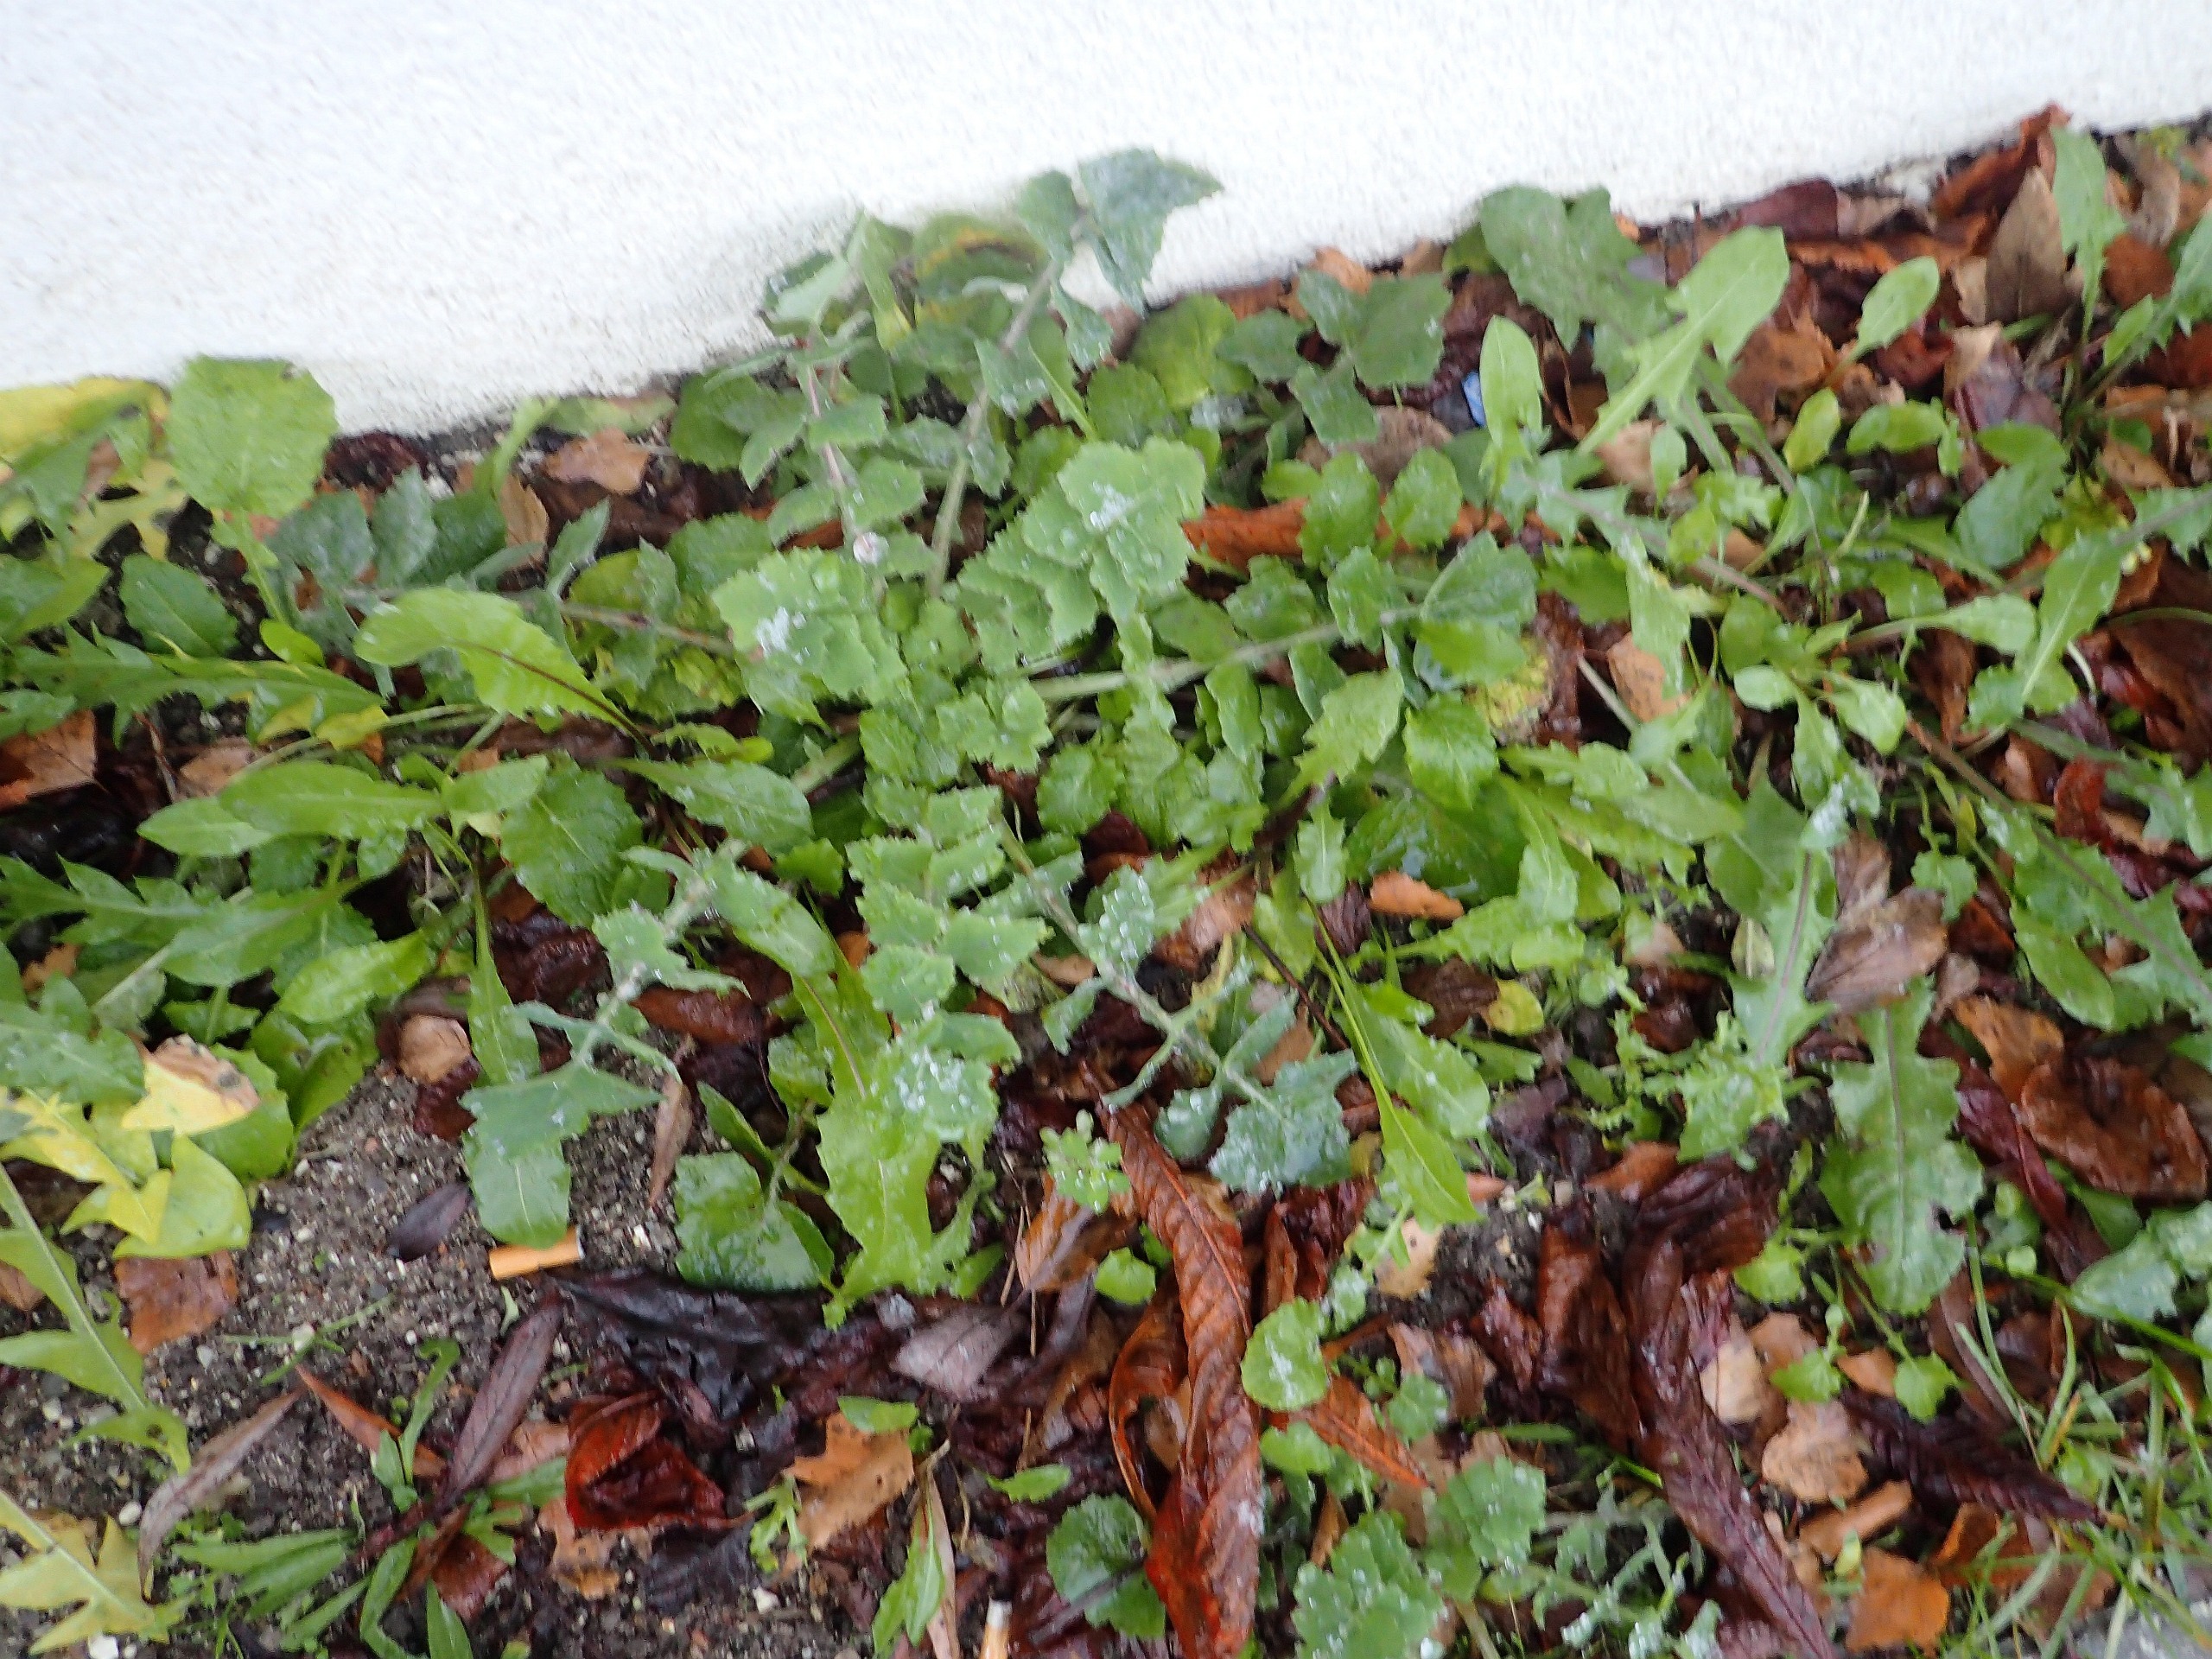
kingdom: Plantae
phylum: Tracheophyta
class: Magnoliopsida
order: Asterales
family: Asteraceae
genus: Sonchus
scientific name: Sonchus oleraceus
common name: Almindelig svinemælk
